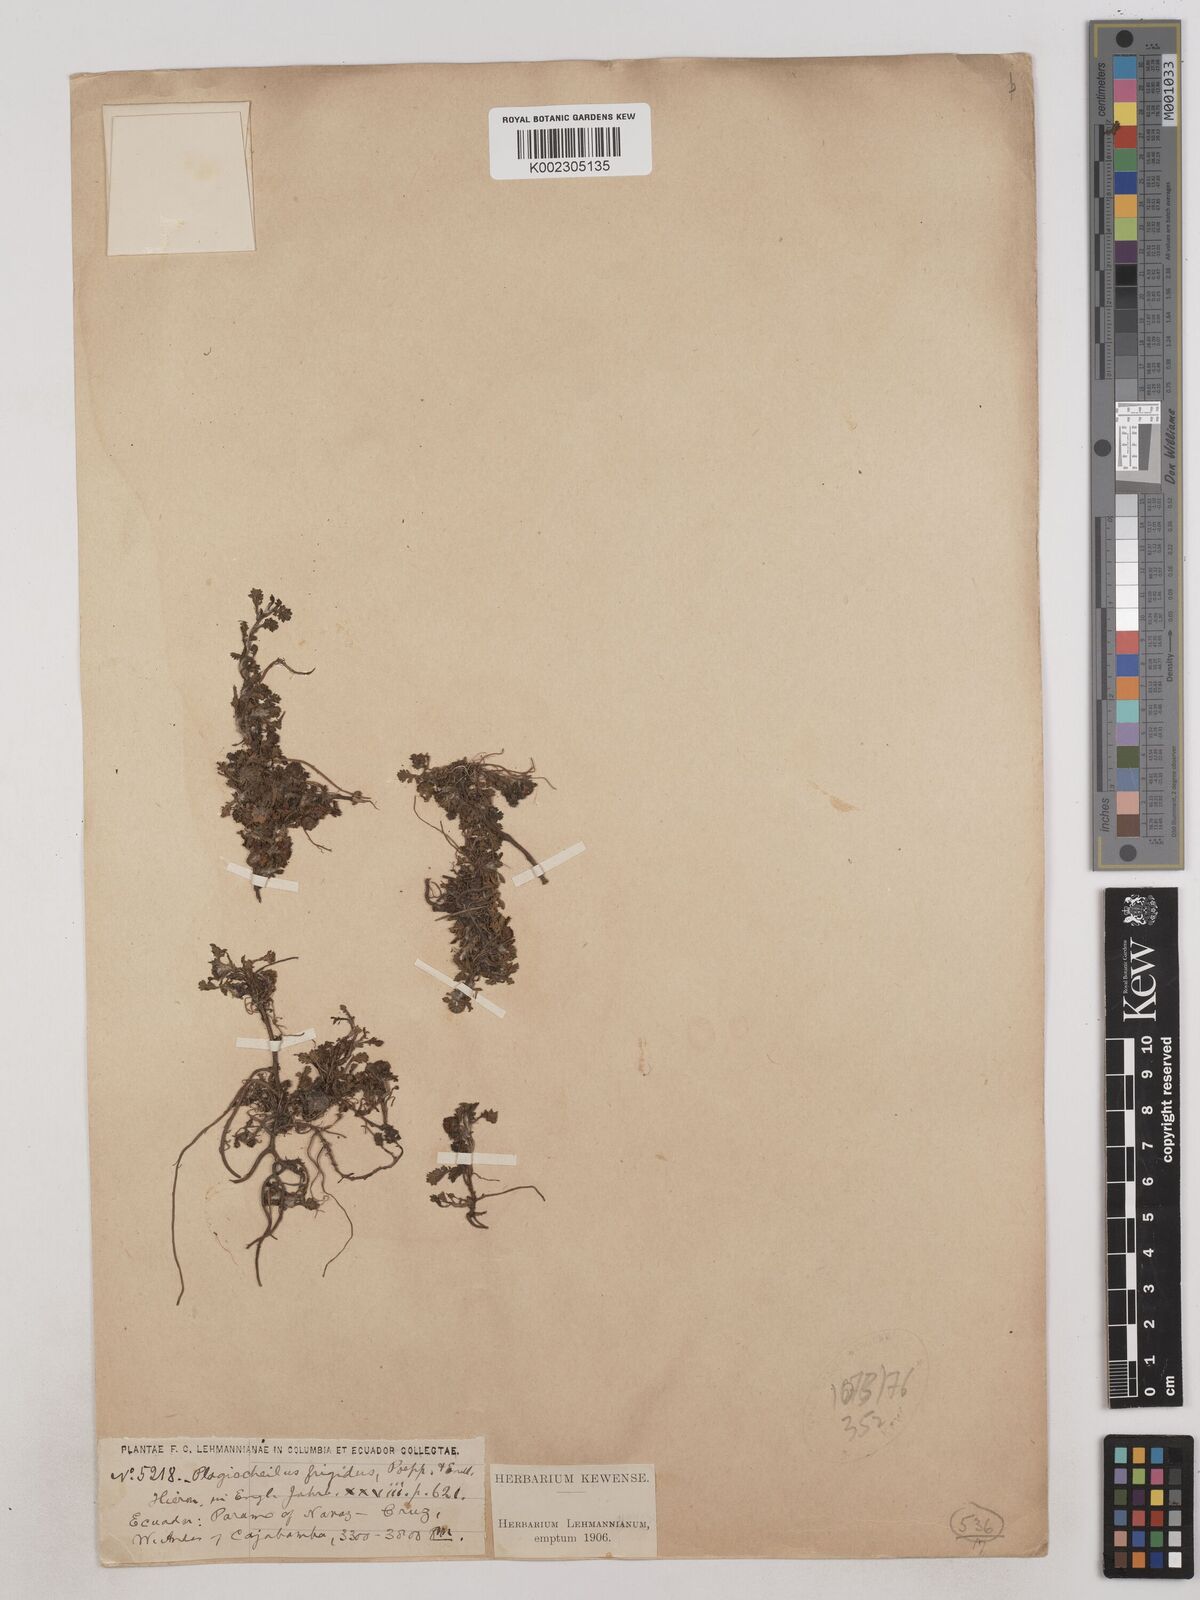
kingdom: Plantae
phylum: Tracheophyta
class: Magnoliopsida
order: Asterales
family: Asteraceae
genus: Plagiocheilus
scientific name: Plagiocheilus frigidus
